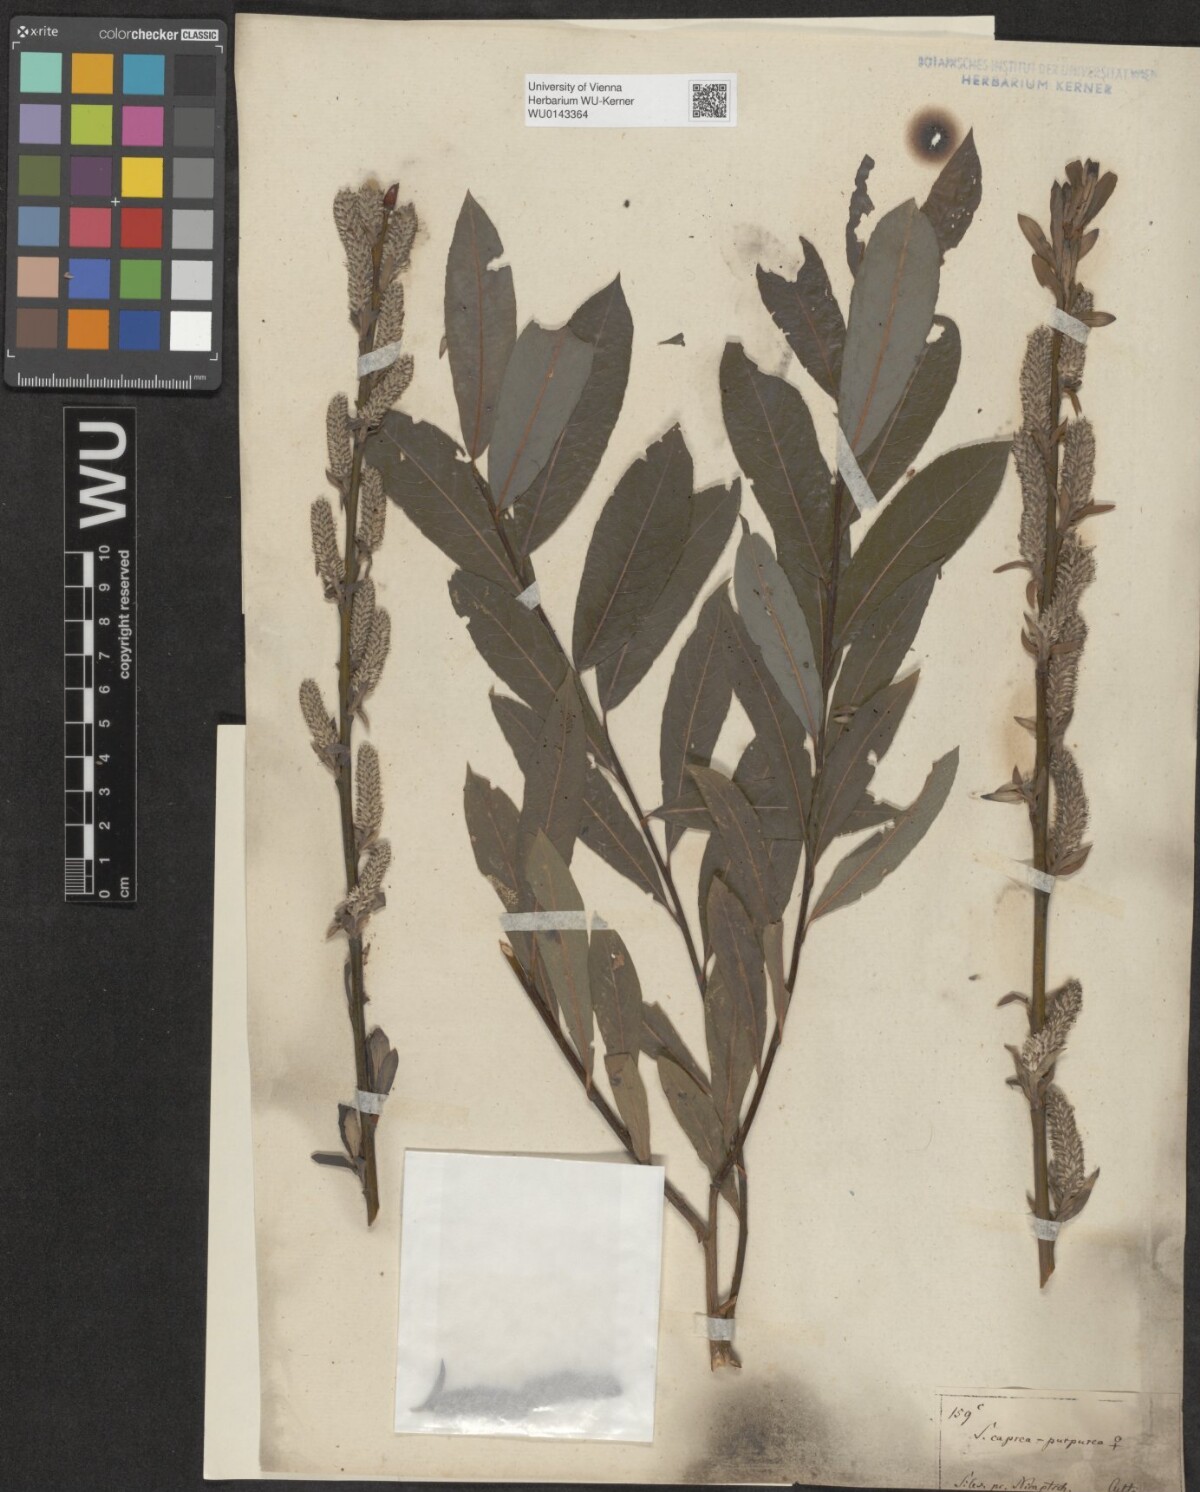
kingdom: Plantae
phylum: Tracheophyta
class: Magnoliopsida
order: Malpighiales
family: Salicaceae
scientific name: Salicaceae
